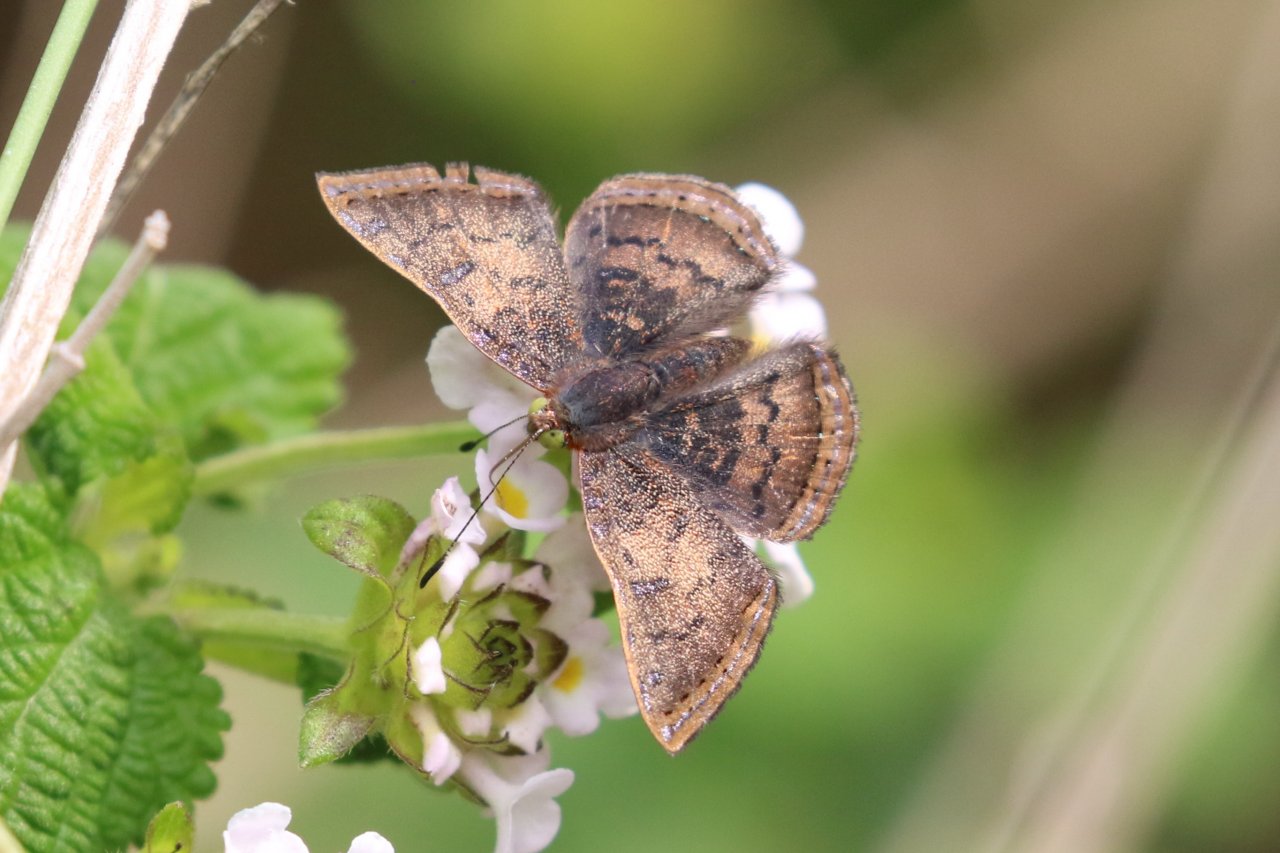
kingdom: Animalia
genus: Caria
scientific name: Caria ino
